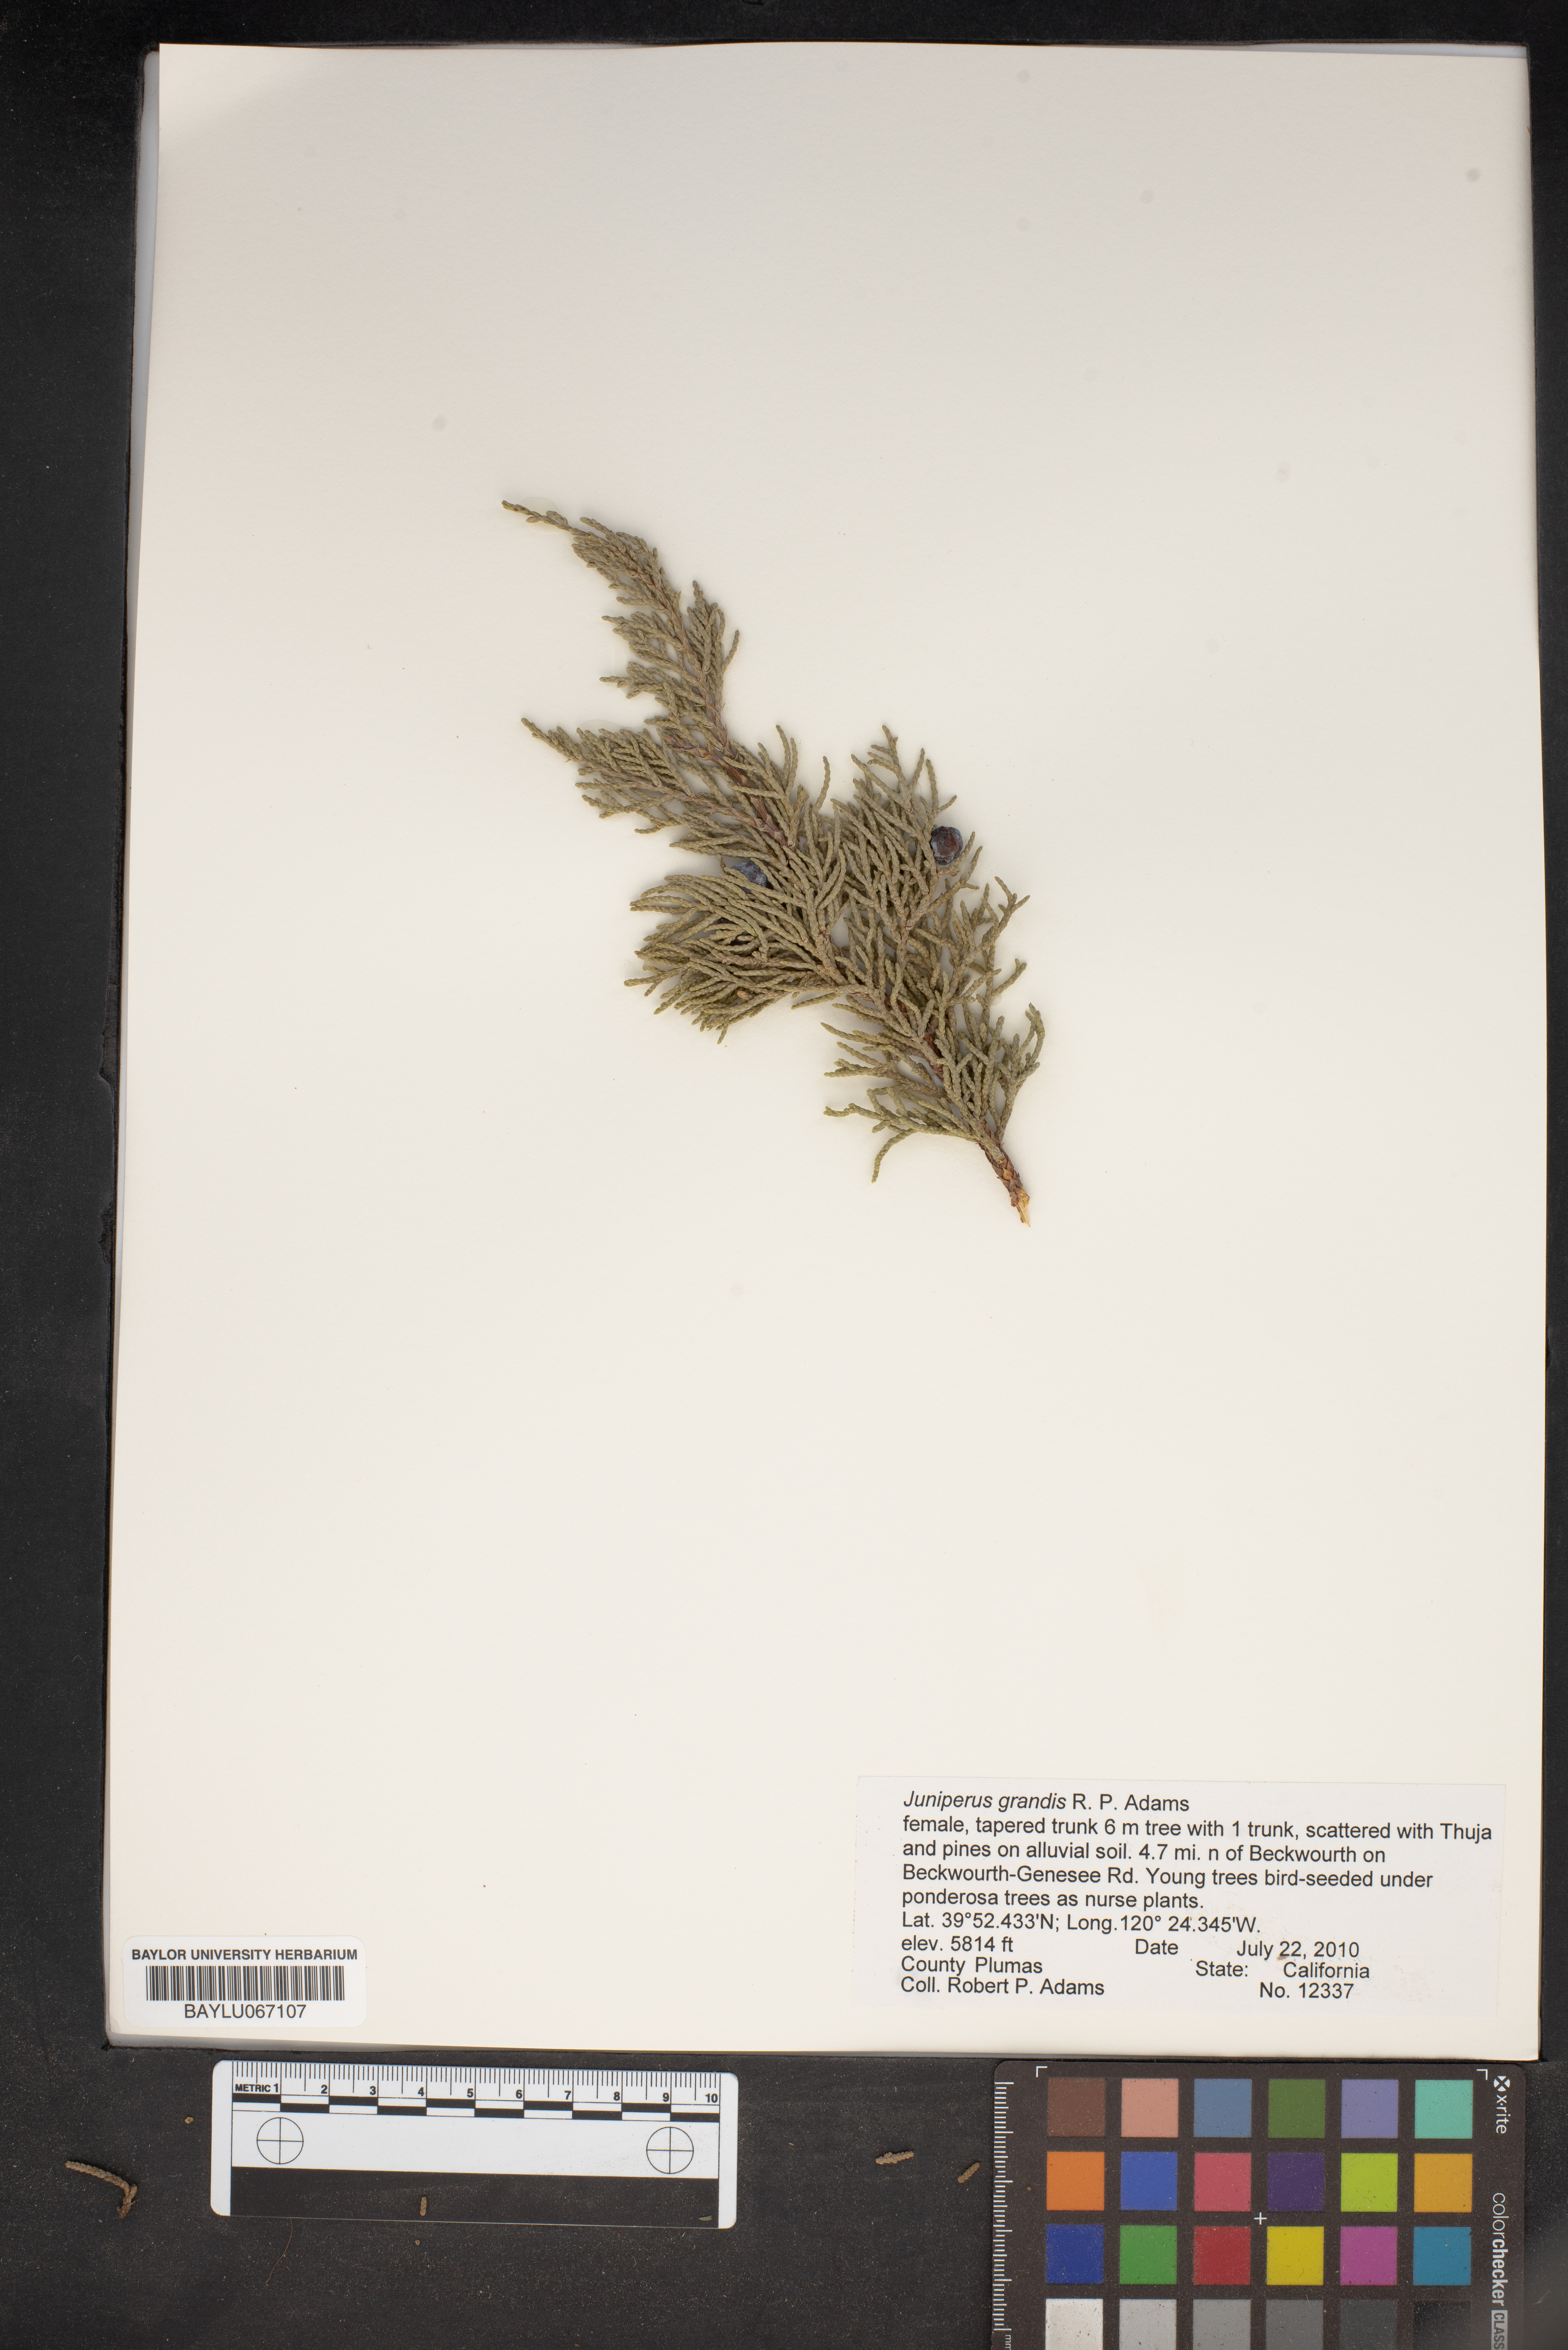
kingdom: Plantae
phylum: Tracheophyta
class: Pinopsida
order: Pinales
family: Cupressaceae
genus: Juniperus
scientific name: Juniperus occidentalis
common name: Western juniper
